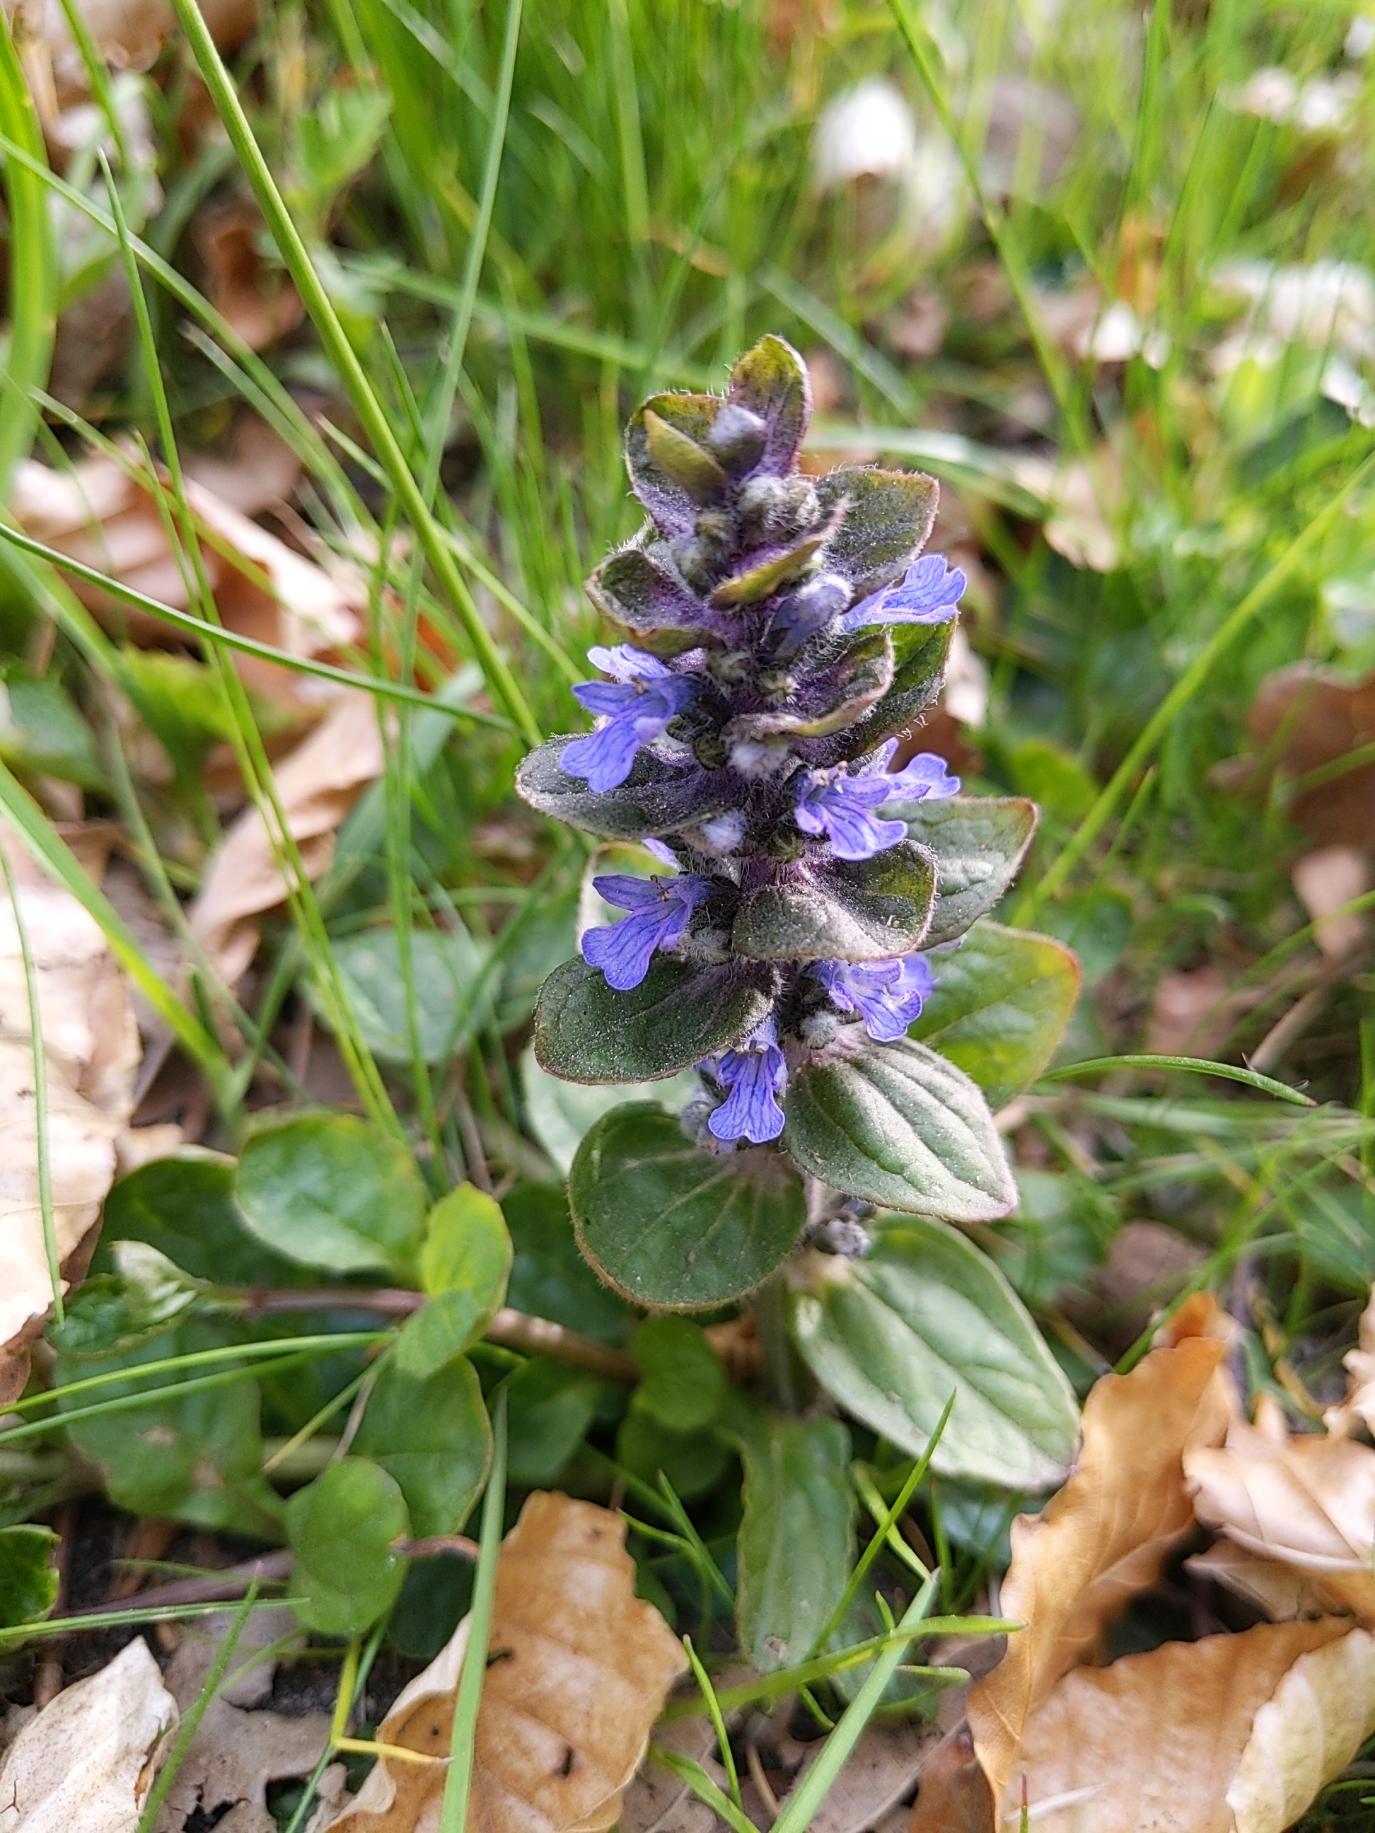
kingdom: Plantae
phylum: Tracheophyta
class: Magnoliopsida
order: Lamiales
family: Lamiaceae
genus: Ajuga
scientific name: Ajuga reptans
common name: Krybende læbeløs
